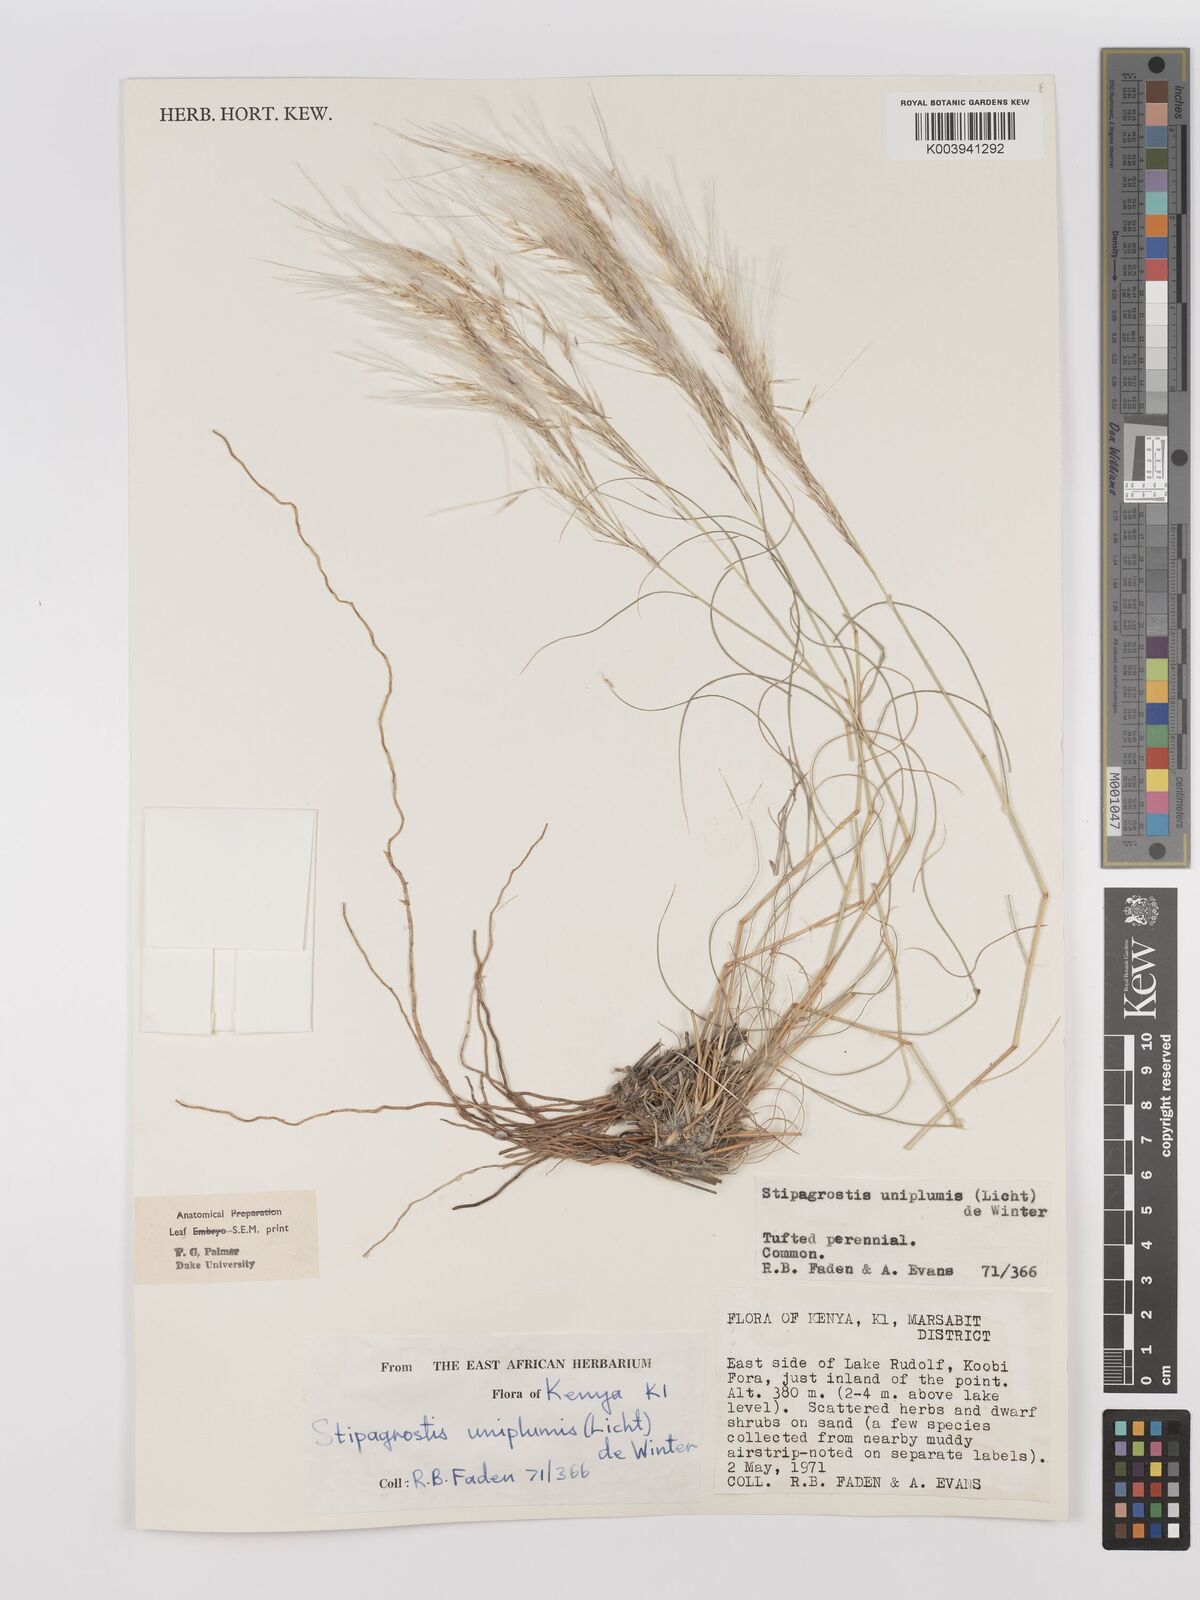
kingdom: Plantae
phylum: Tracheophyta
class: Liliopsida
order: Poales
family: Poaceae
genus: Stipagrostis
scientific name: Stipagrostis uniplumis
